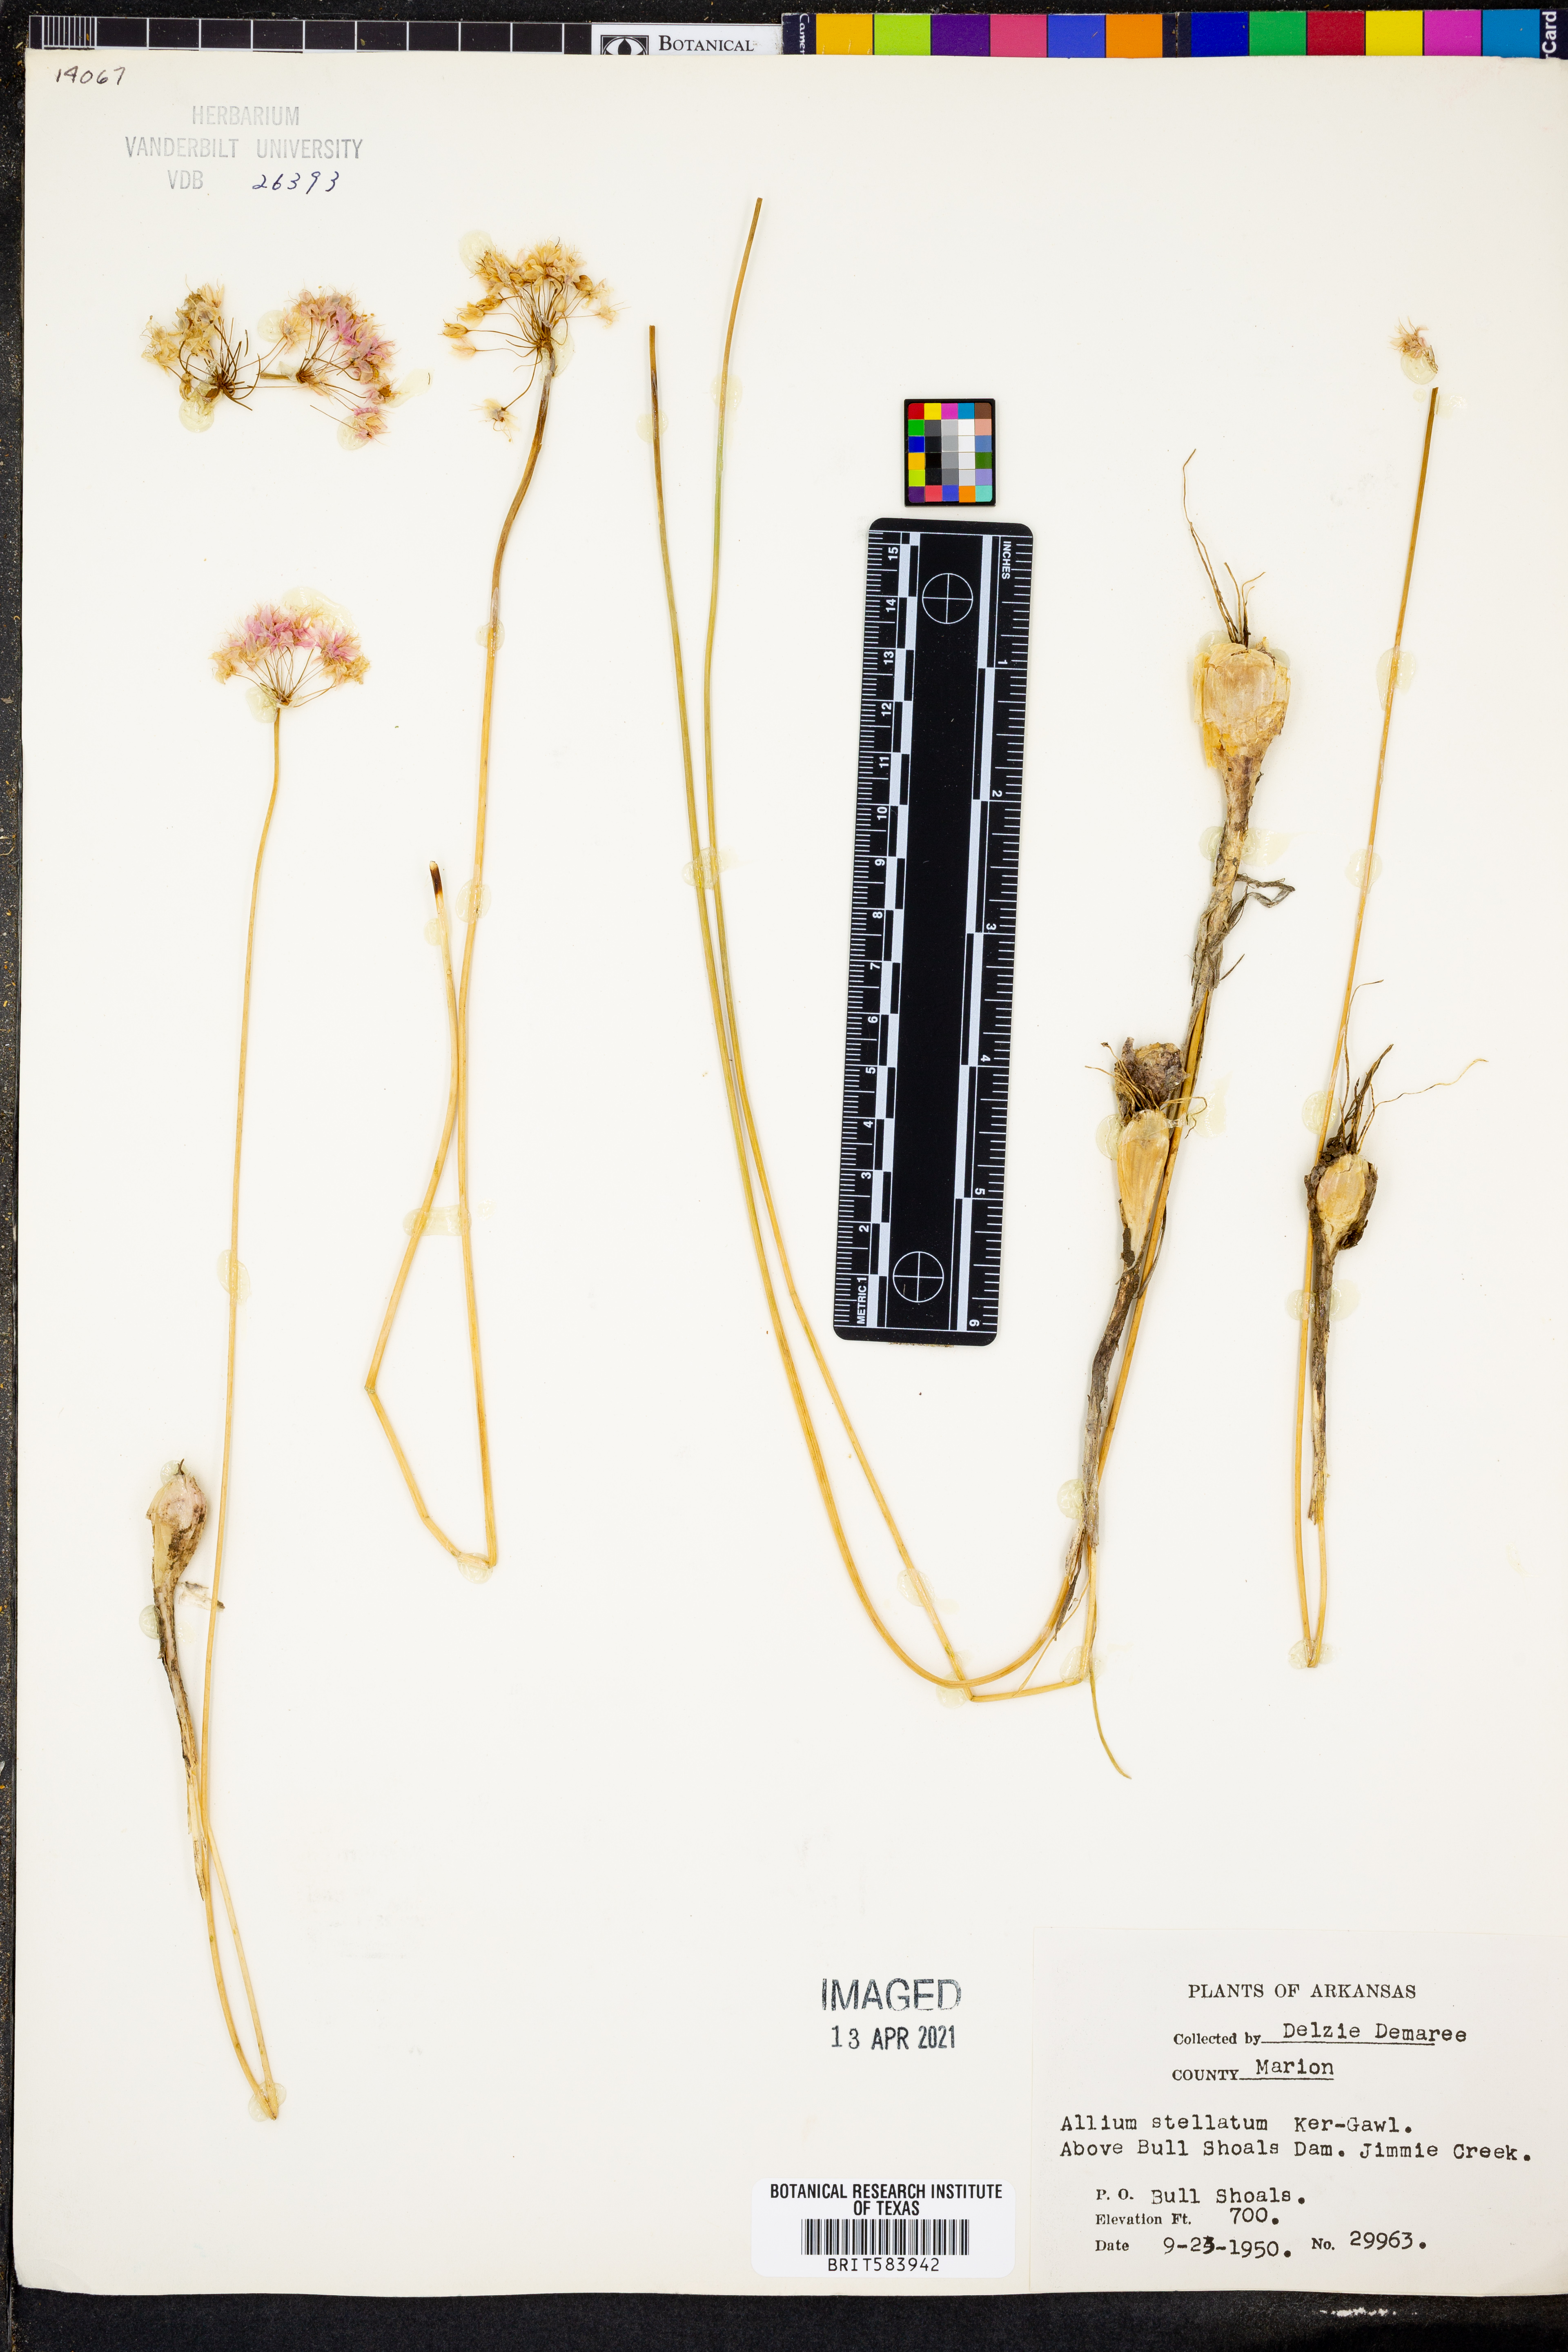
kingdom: Plantae
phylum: Tracheophyta
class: Liliopsida
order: Asparagales
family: Amaryllidaceae
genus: Allium
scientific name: Allium stellatum
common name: Autumn onion
